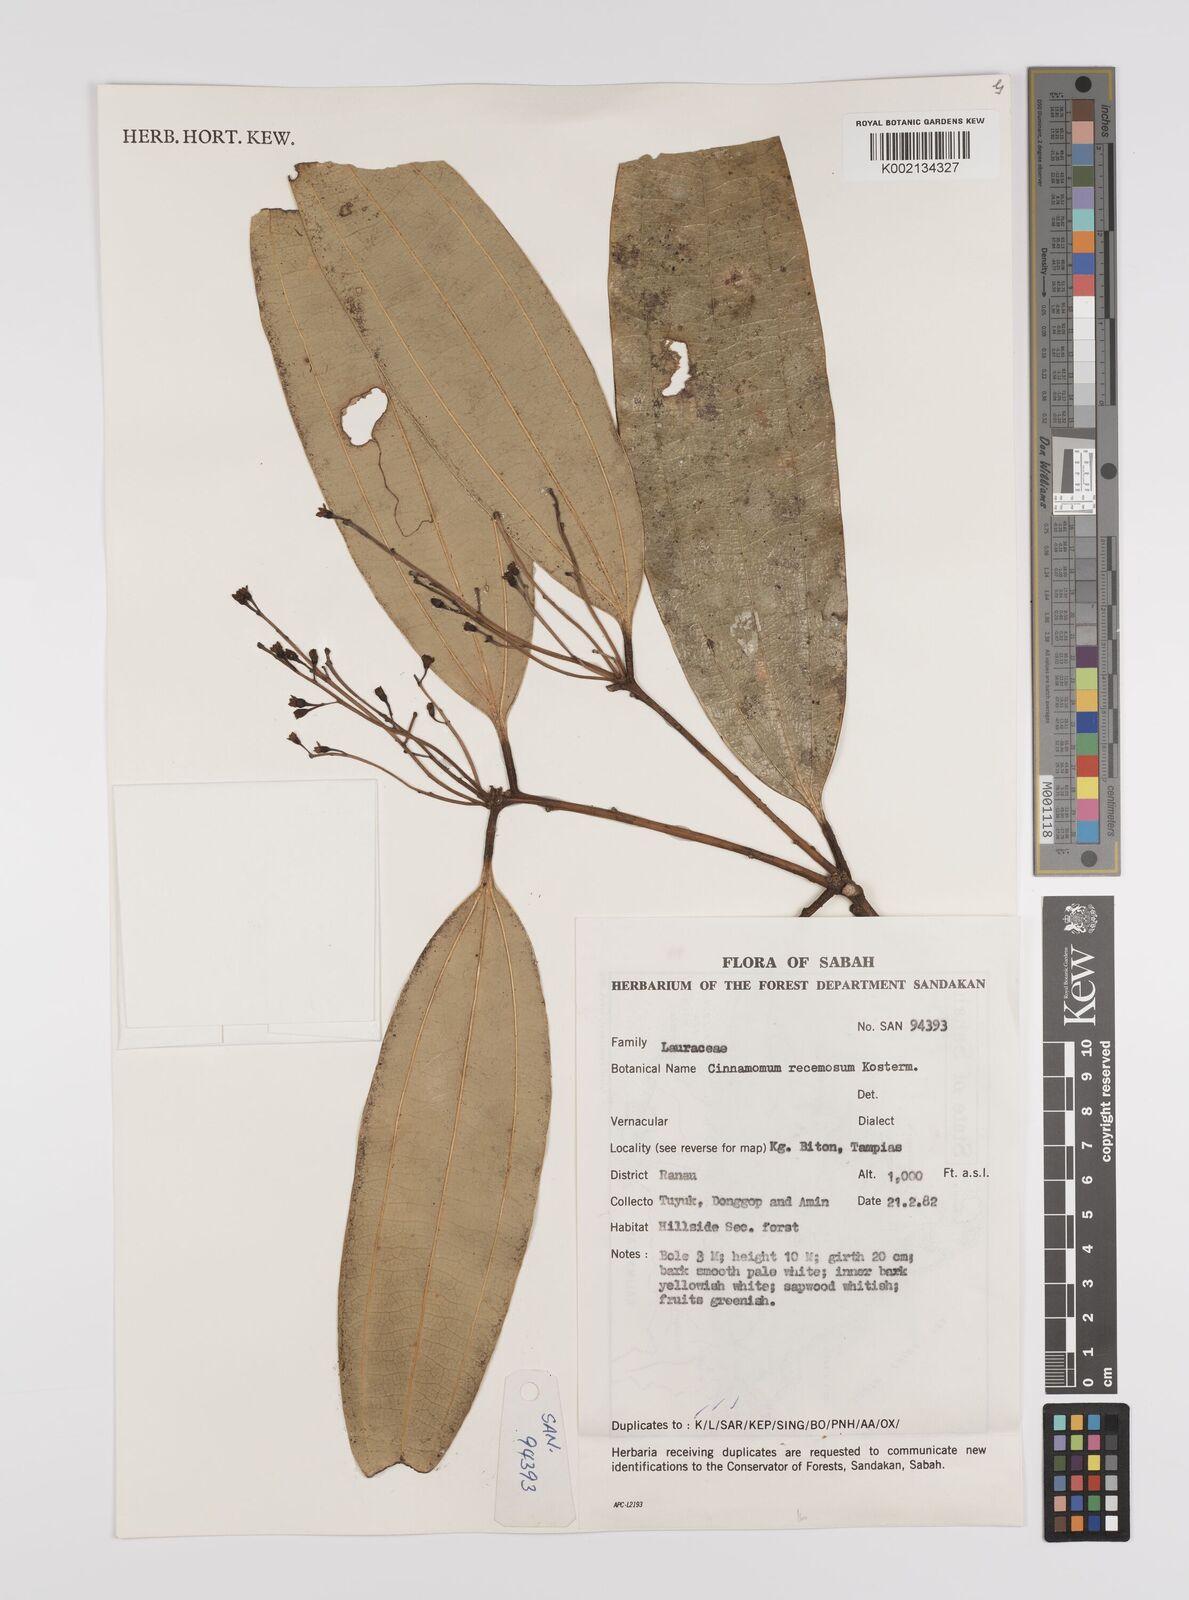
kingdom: Plantae
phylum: Tracheophyta
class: Magnoliopsida
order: Laurales
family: Lauraceae
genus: Cinnamomum
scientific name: Cinnamomum racemosum
